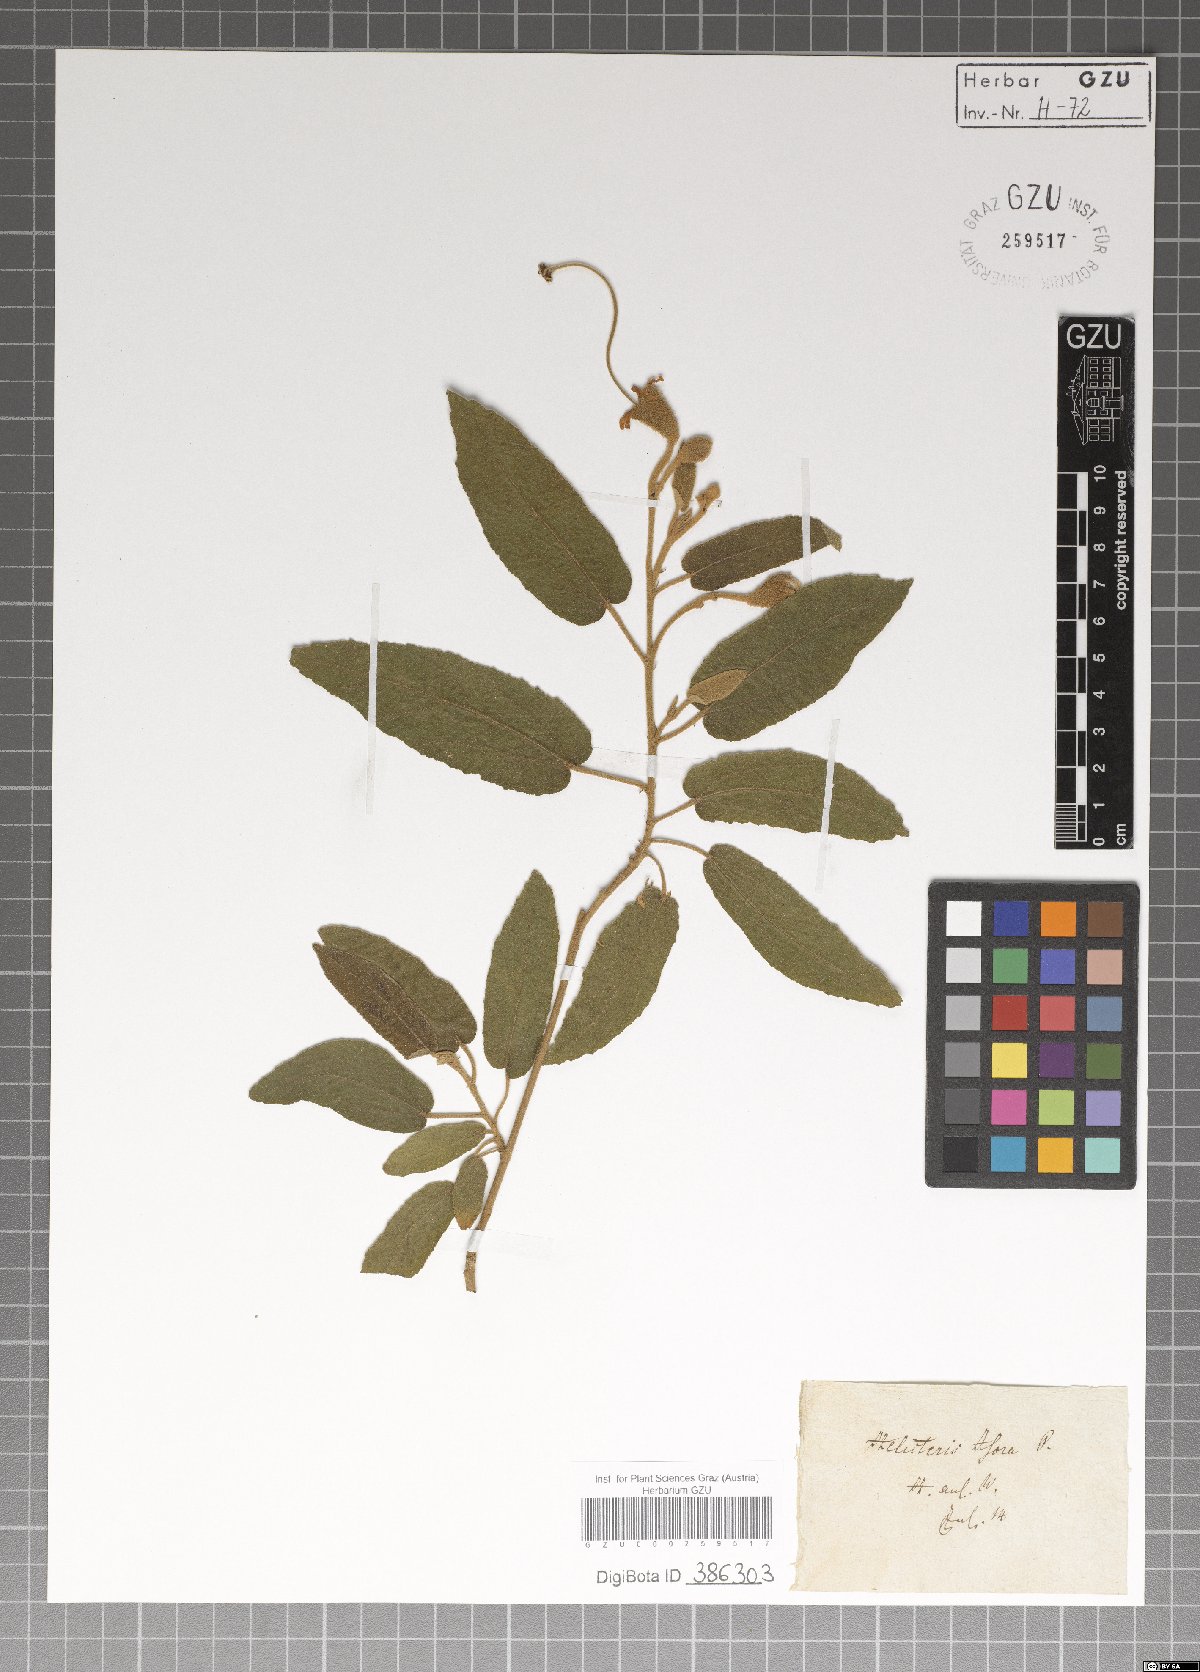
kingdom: Plantae
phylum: Tracheophyta
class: Magnoliopsida
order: Malvales
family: Malvaceae
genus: Helicteres
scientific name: Helicteres isora
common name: East indian screwtree
